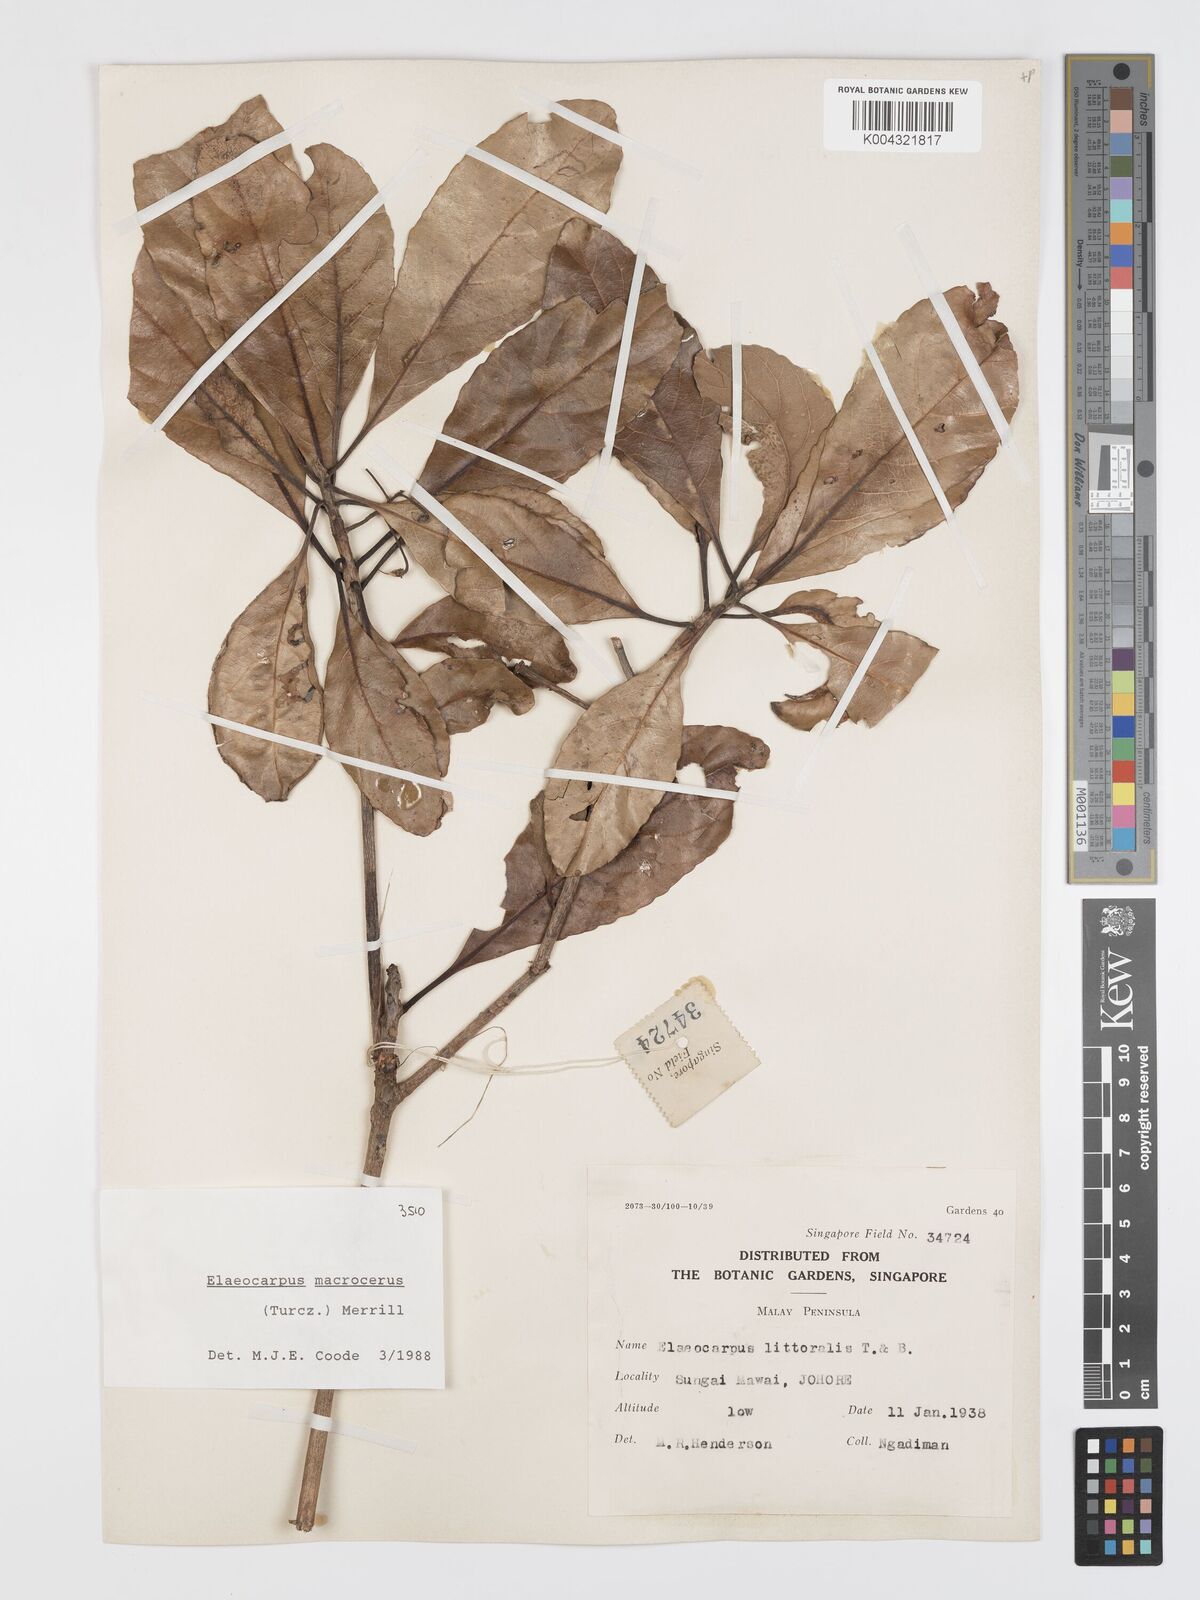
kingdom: Plantae
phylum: Tracheophyta
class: Magnoliopsida
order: Oxalidales
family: Elaeocarpaceae
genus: Elaeocarpus
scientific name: Elaeocarpus macrocerus
